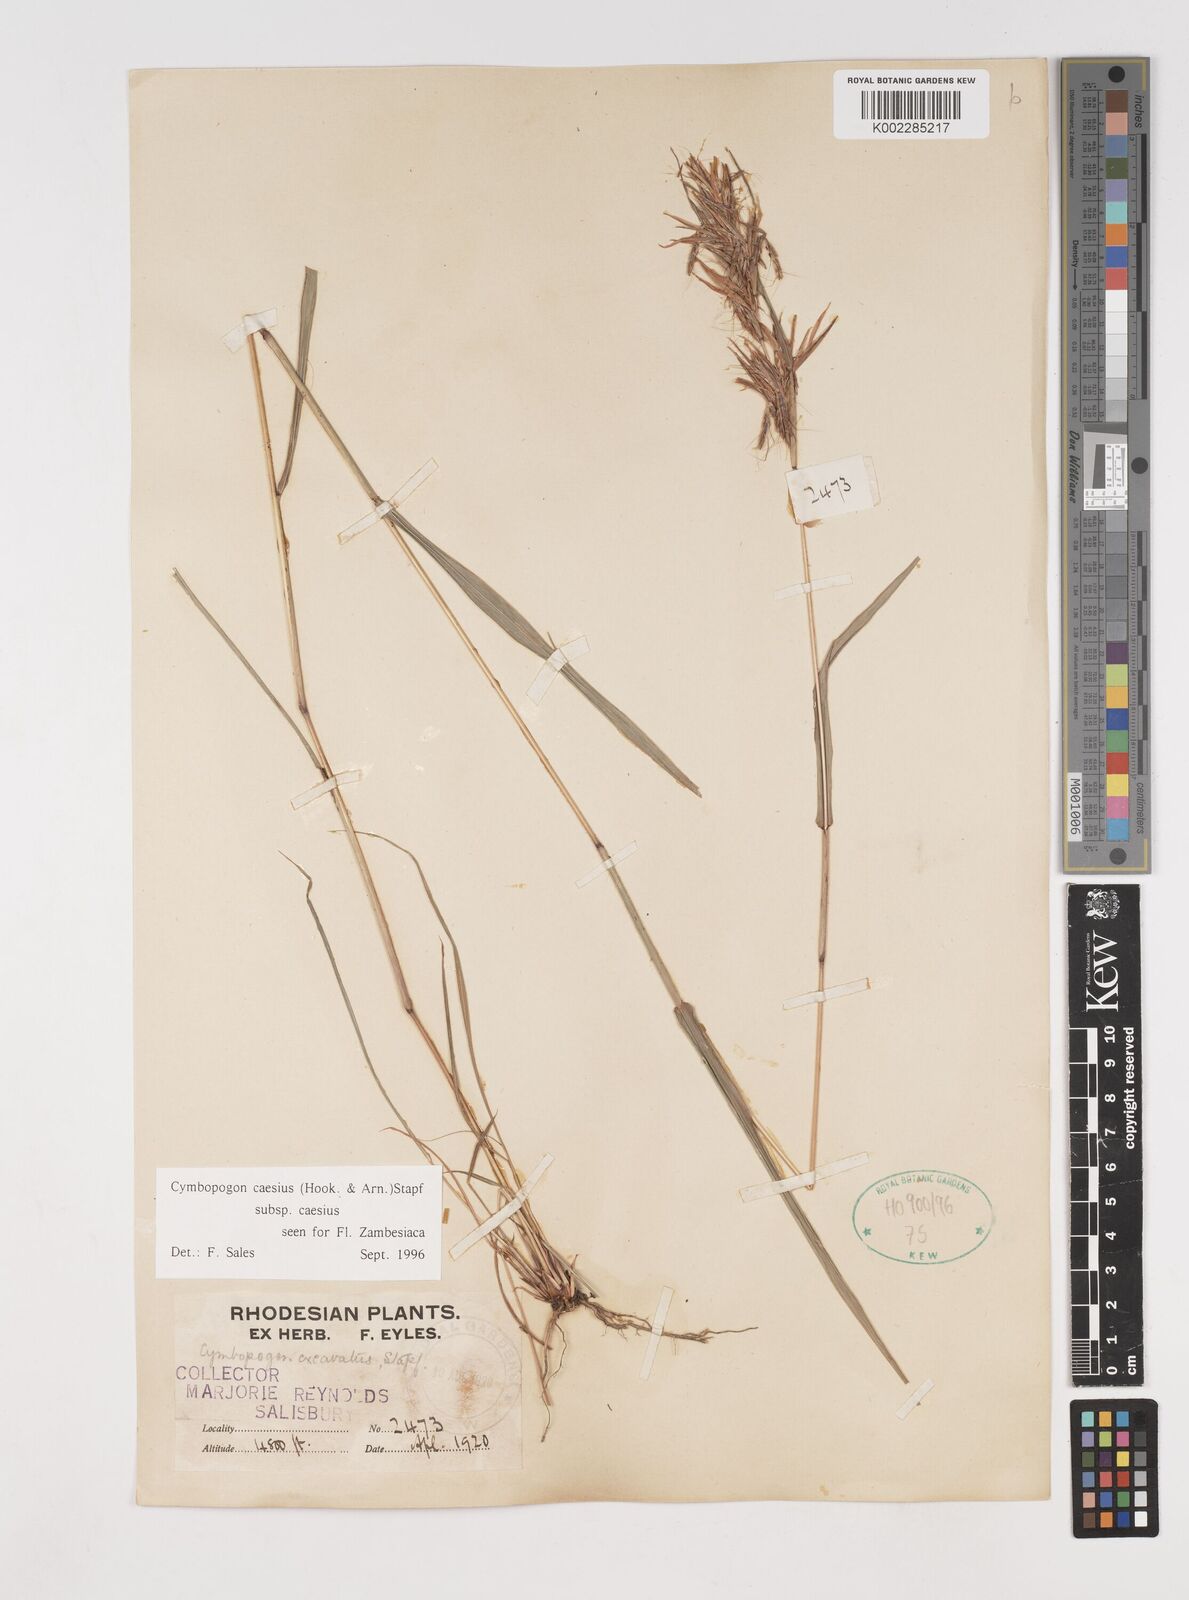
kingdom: Plantae
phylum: Tracheophyta
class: Liliopsida
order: Poales
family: Poaceae
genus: Cymbopogon
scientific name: Cymbopogon caesius
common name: Kachi grass
